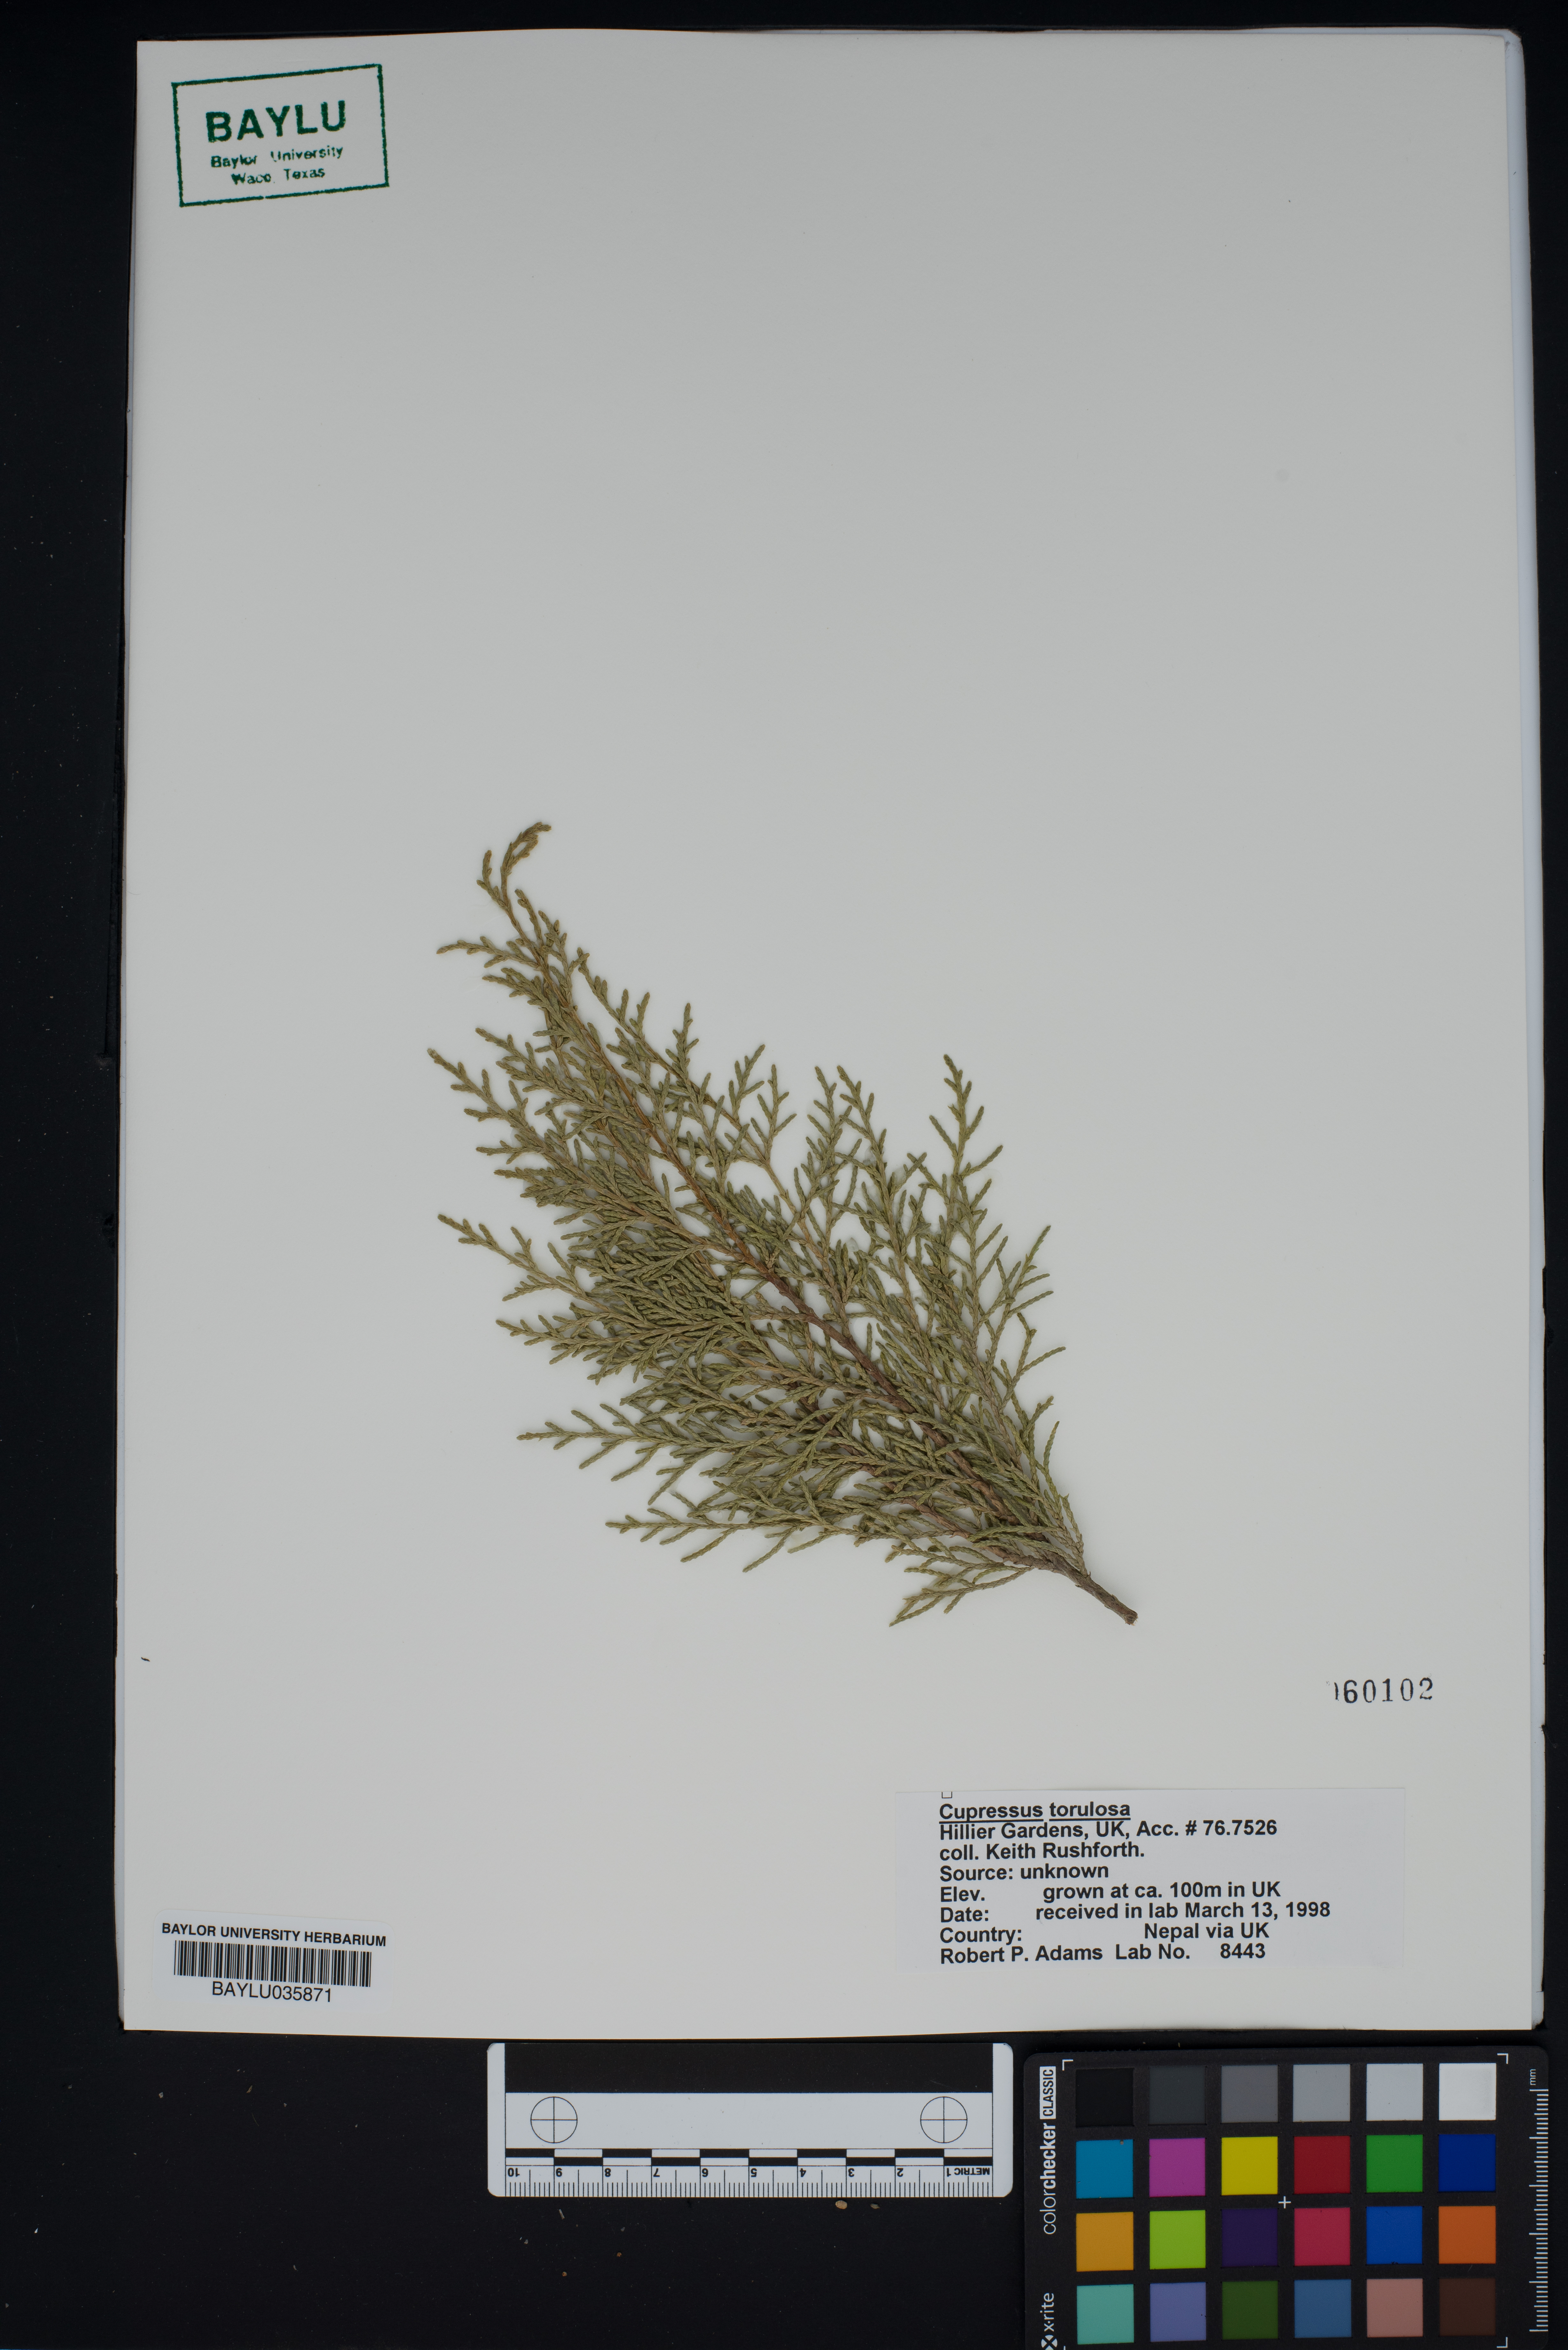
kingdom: Plantae
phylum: Tracheophyta
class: Pinopsida
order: Pinales
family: Cupressaceae
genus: Cupressus
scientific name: Cupressus torulosa
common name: Himalayan cypress
